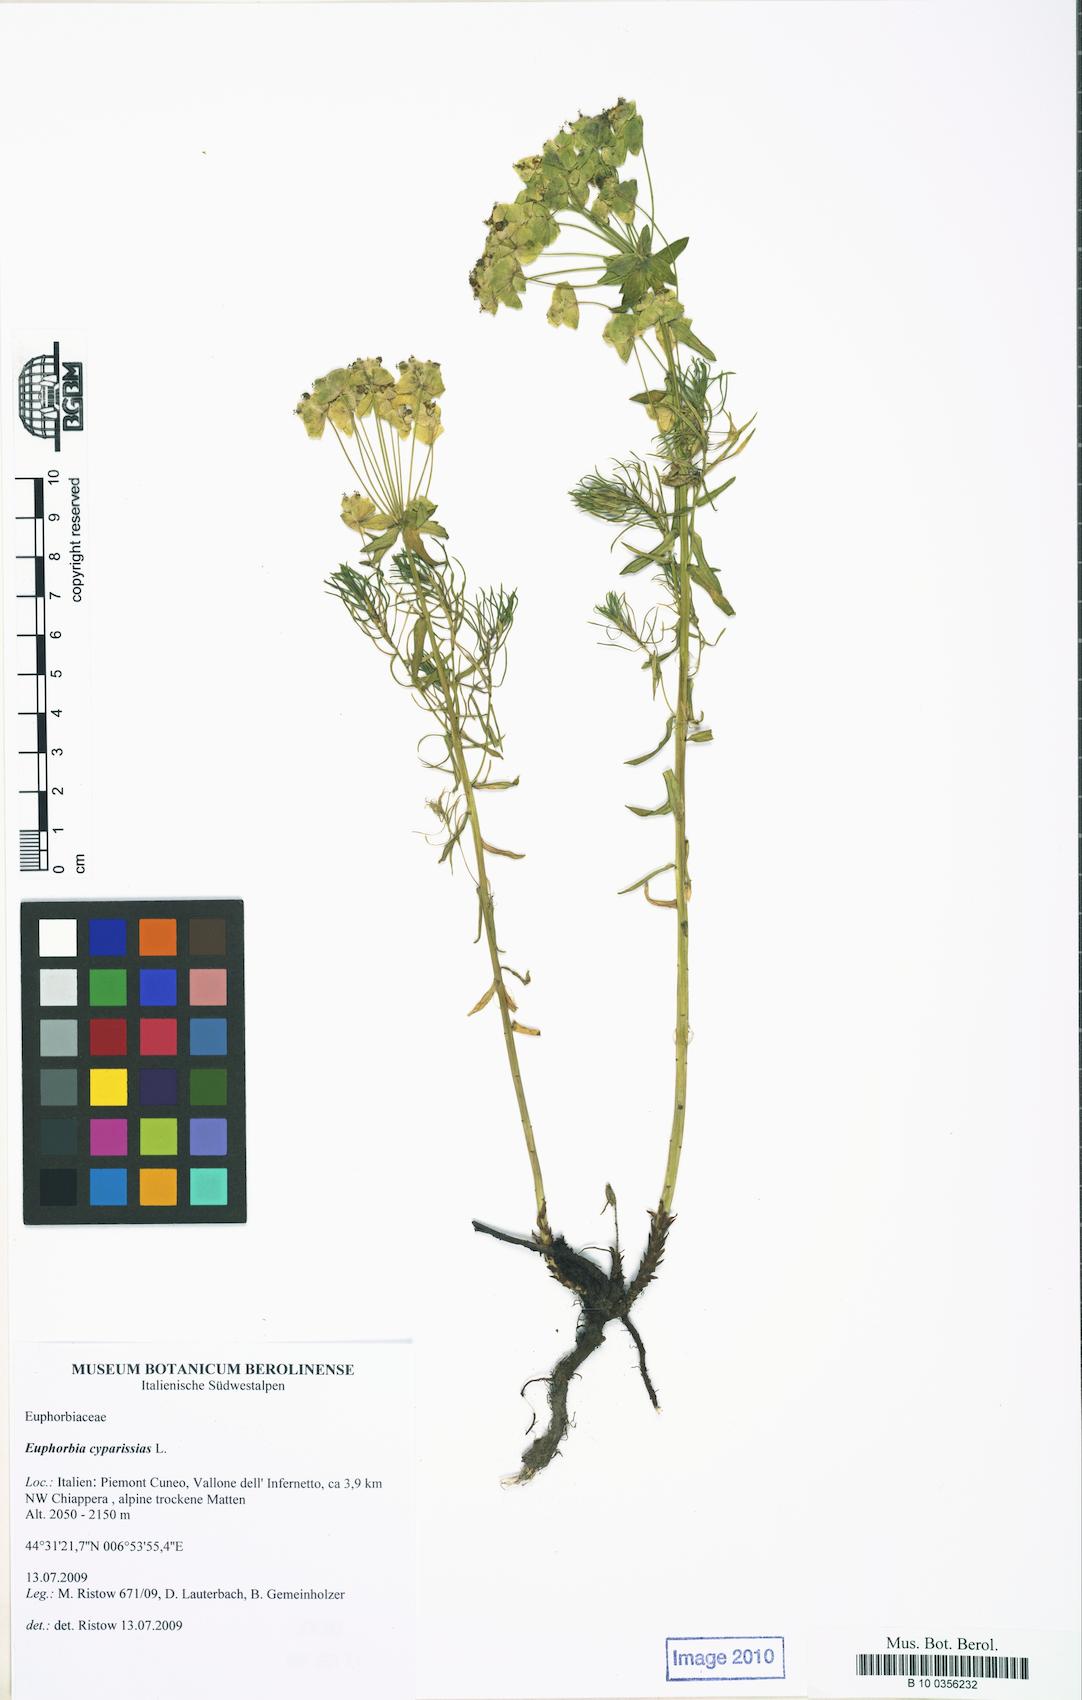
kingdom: Plantae
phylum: Tracheophyta
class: Magnoliopsida
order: Malpighiales
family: Euphorbiaceae
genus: Euphorbia
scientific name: Euphorbia cyparissias
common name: Cypress spurge
